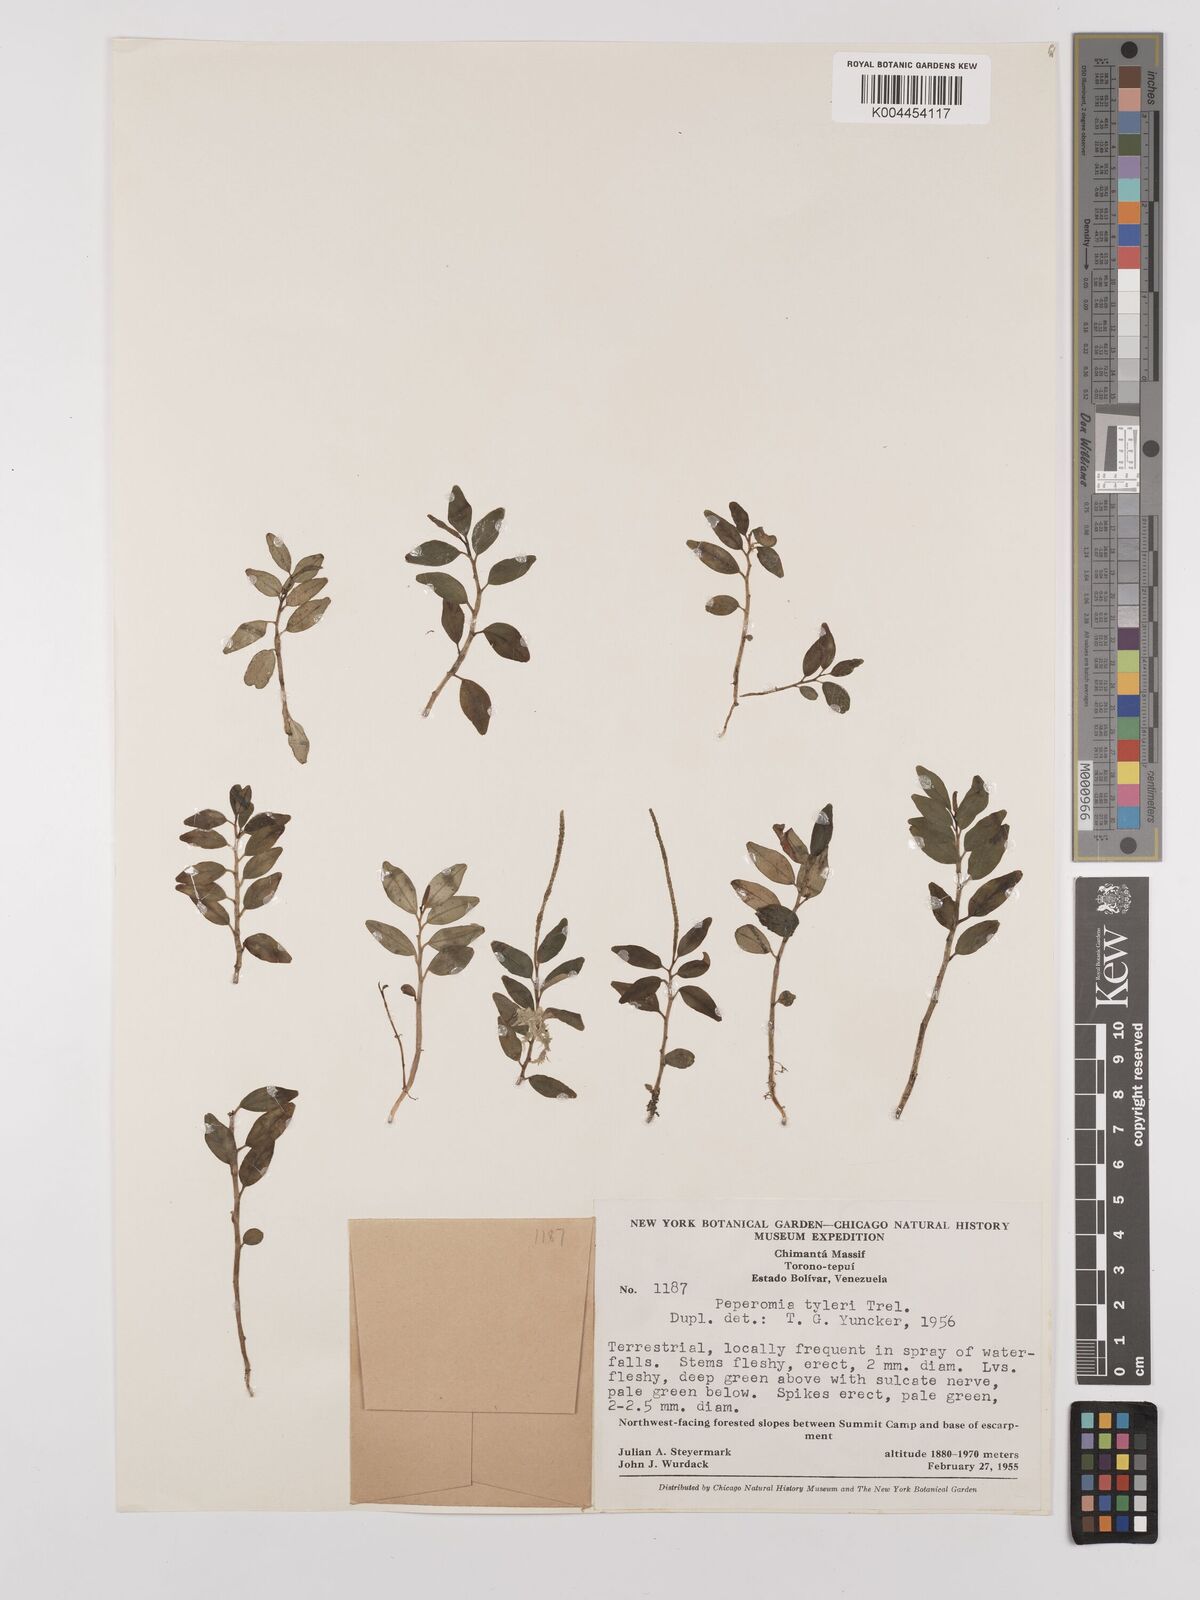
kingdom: Plantae
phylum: Tracheophyta
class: Magnoliopsida
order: Piperales
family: Piperaceae
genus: Peperomia
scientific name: Peperomia
